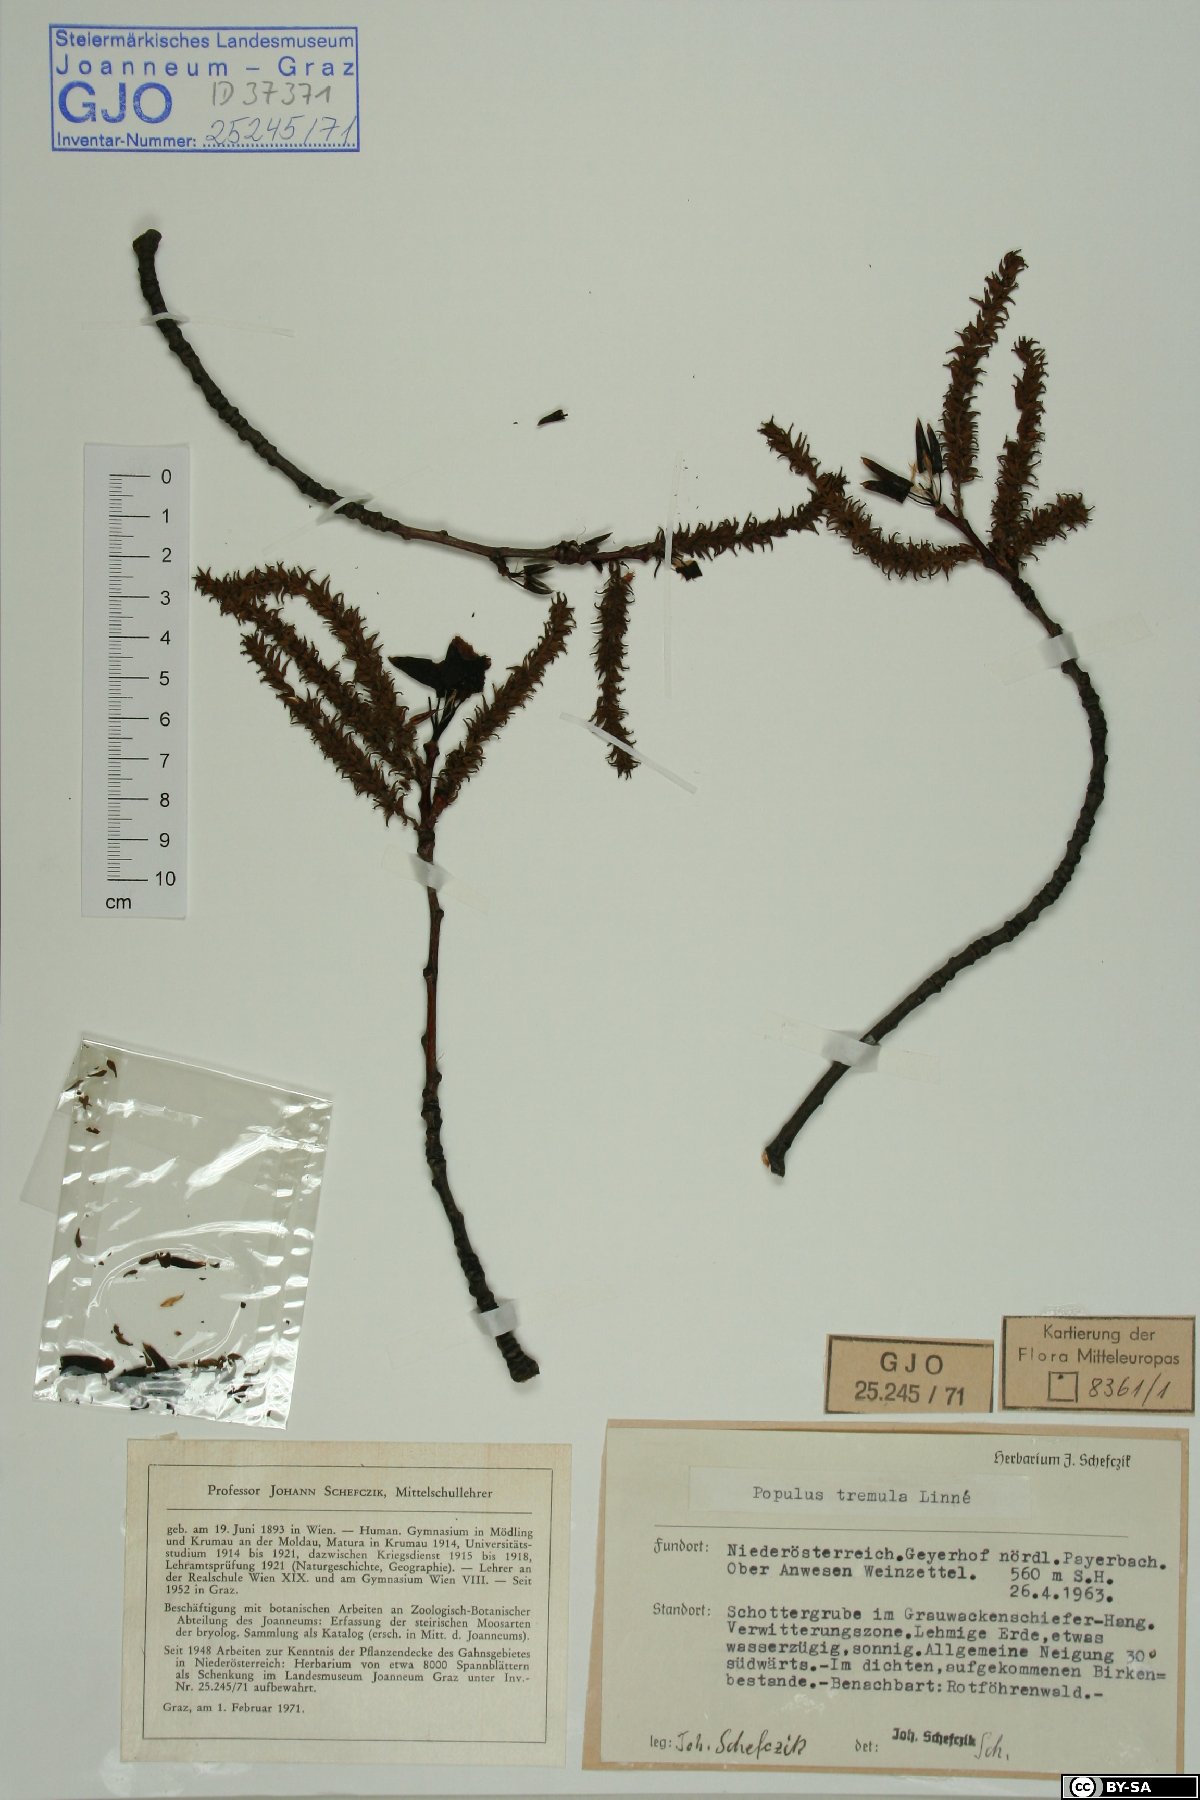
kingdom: Plantae
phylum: Tracheophyta
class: Magnoliopsida
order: Malpighiales
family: Salicaceae
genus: Populus
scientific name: Populus tremula
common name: European aspen
